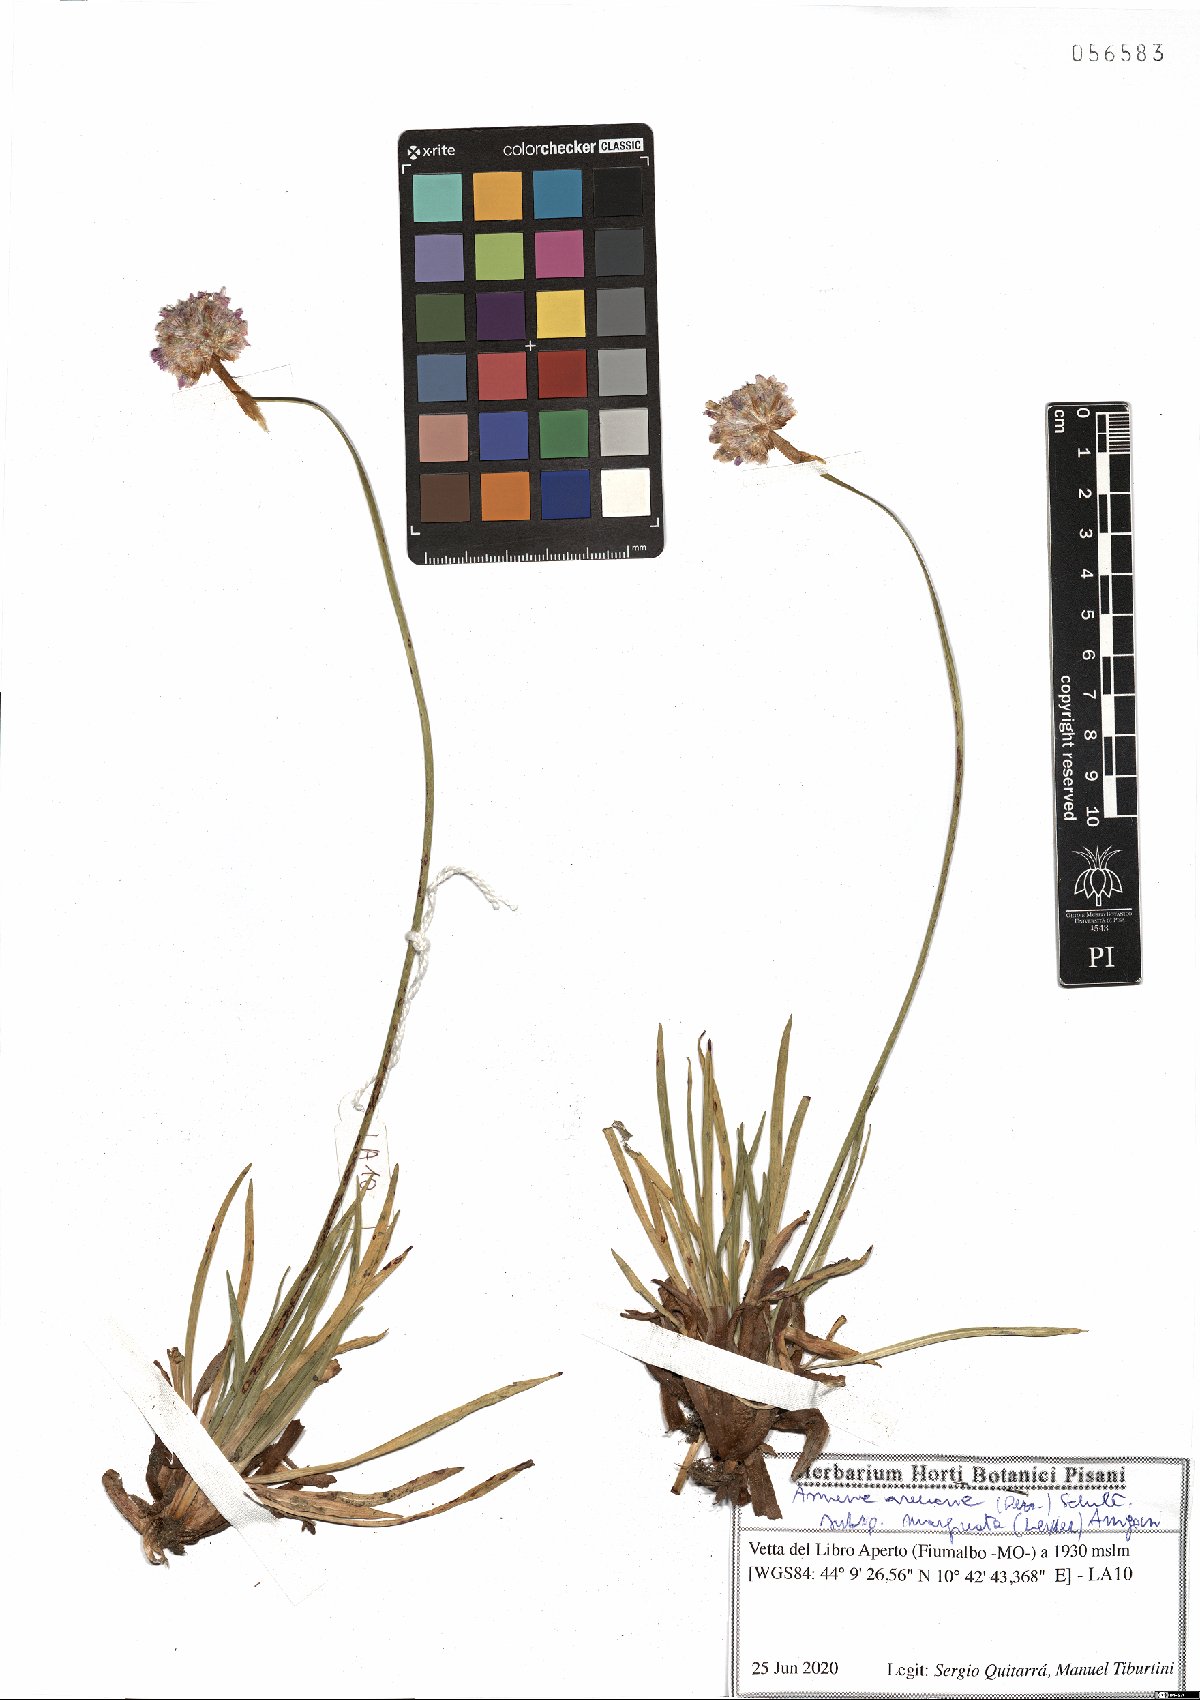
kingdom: Plantae
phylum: Tracheophyta
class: Magnoliopsida
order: Caryophyllales
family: Plumbaginaceae
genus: Armeria
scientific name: Armeria arenaria
